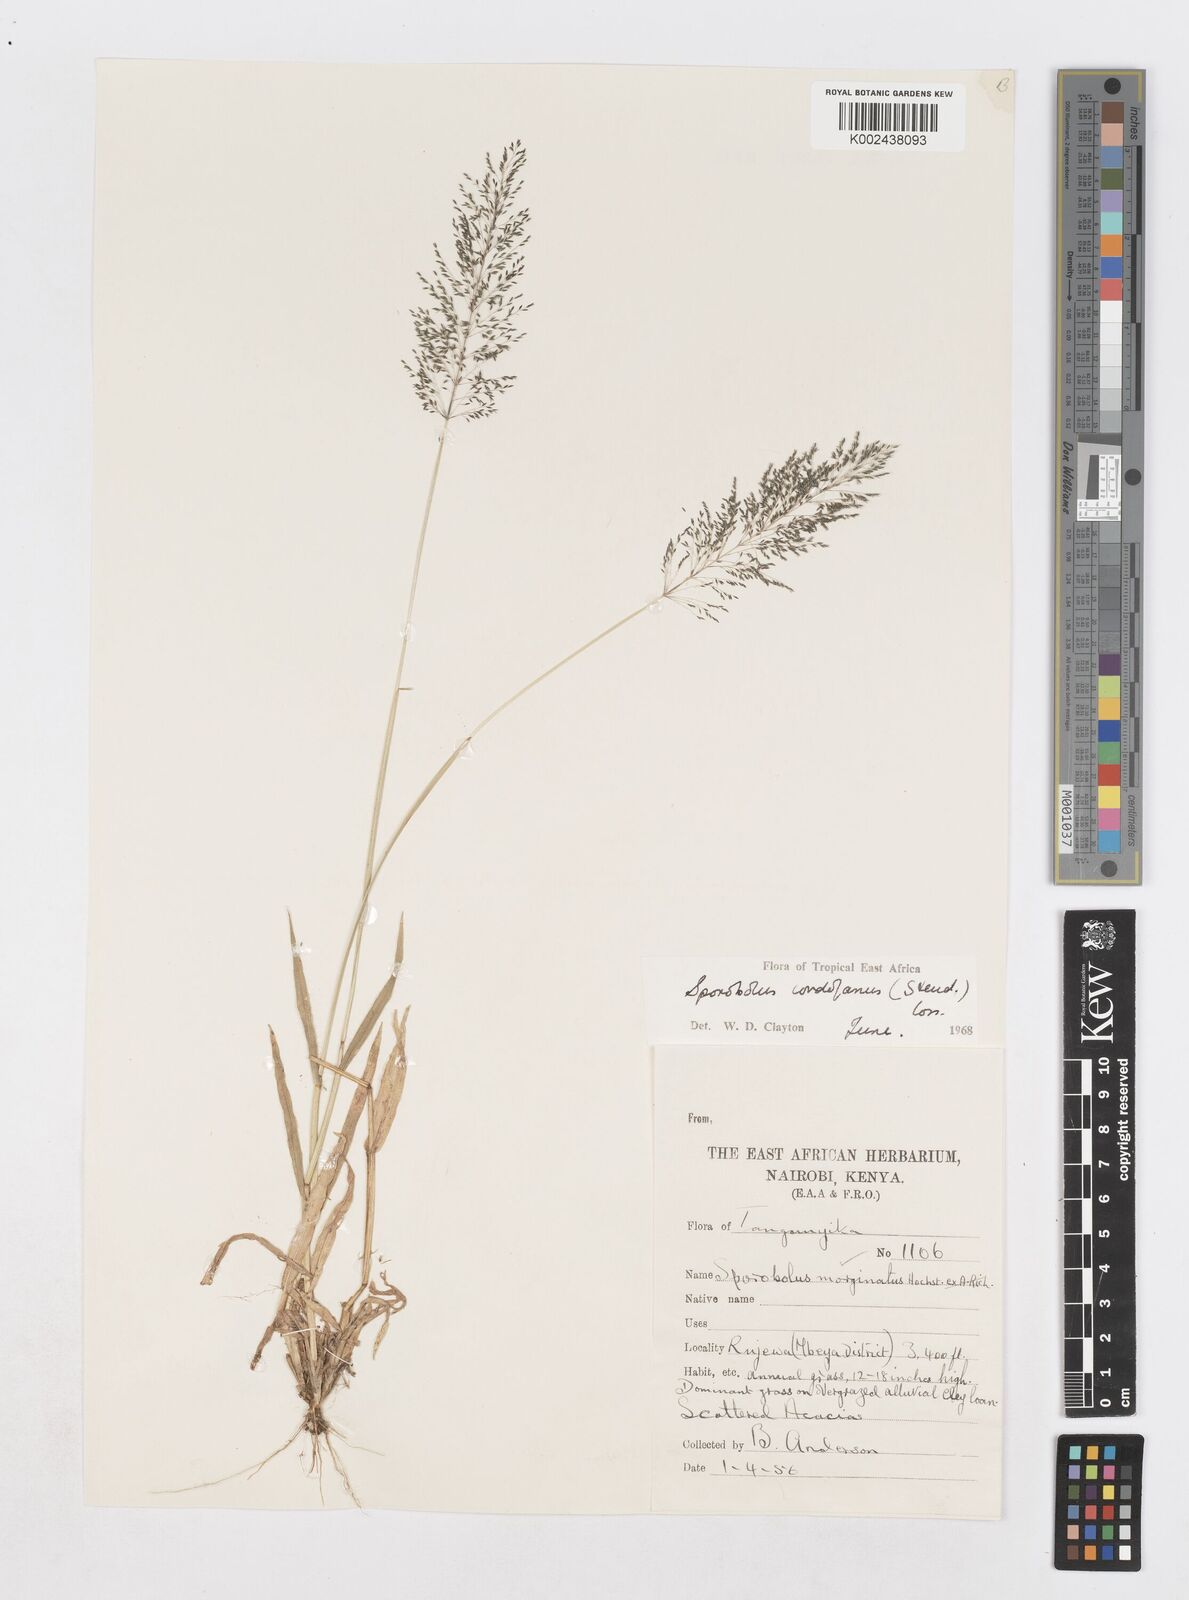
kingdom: Plantae
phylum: Tracheophyta
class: Liliopsida
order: Poales
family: Poaceae
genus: Sporobolus
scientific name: Sporobolus cordofanus
